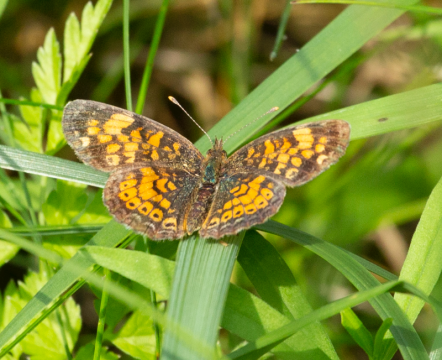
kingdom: Animalia
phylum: Arthropoda
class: Insecta
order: Lepidoptera
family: Nymphalidae
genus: Phyciodes
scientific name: Phyciodes tharos
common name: Pearl Crescent
